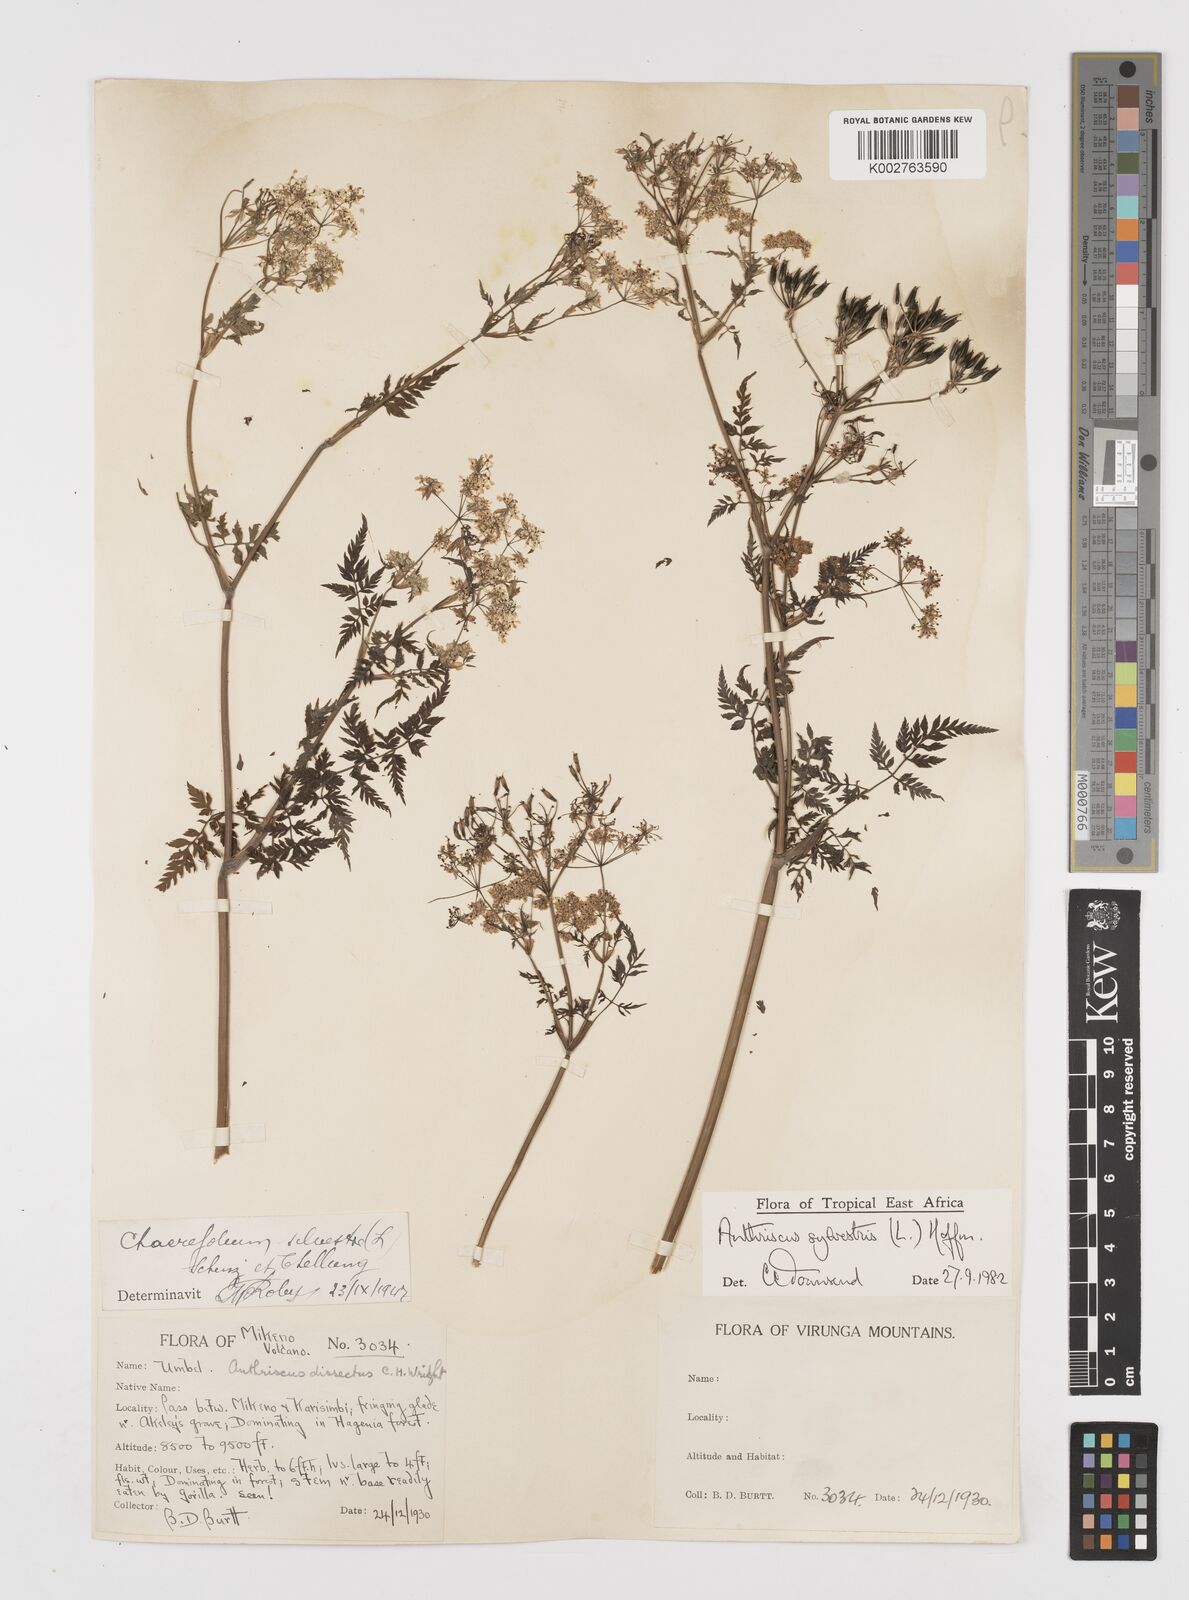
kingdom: Plantae
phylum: Tracheophyta
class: Magnoliopsida
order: Apiales
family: Apiaceae
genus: Anthriscus
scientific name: Anthriscus sylvestris
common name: Cow parsley
